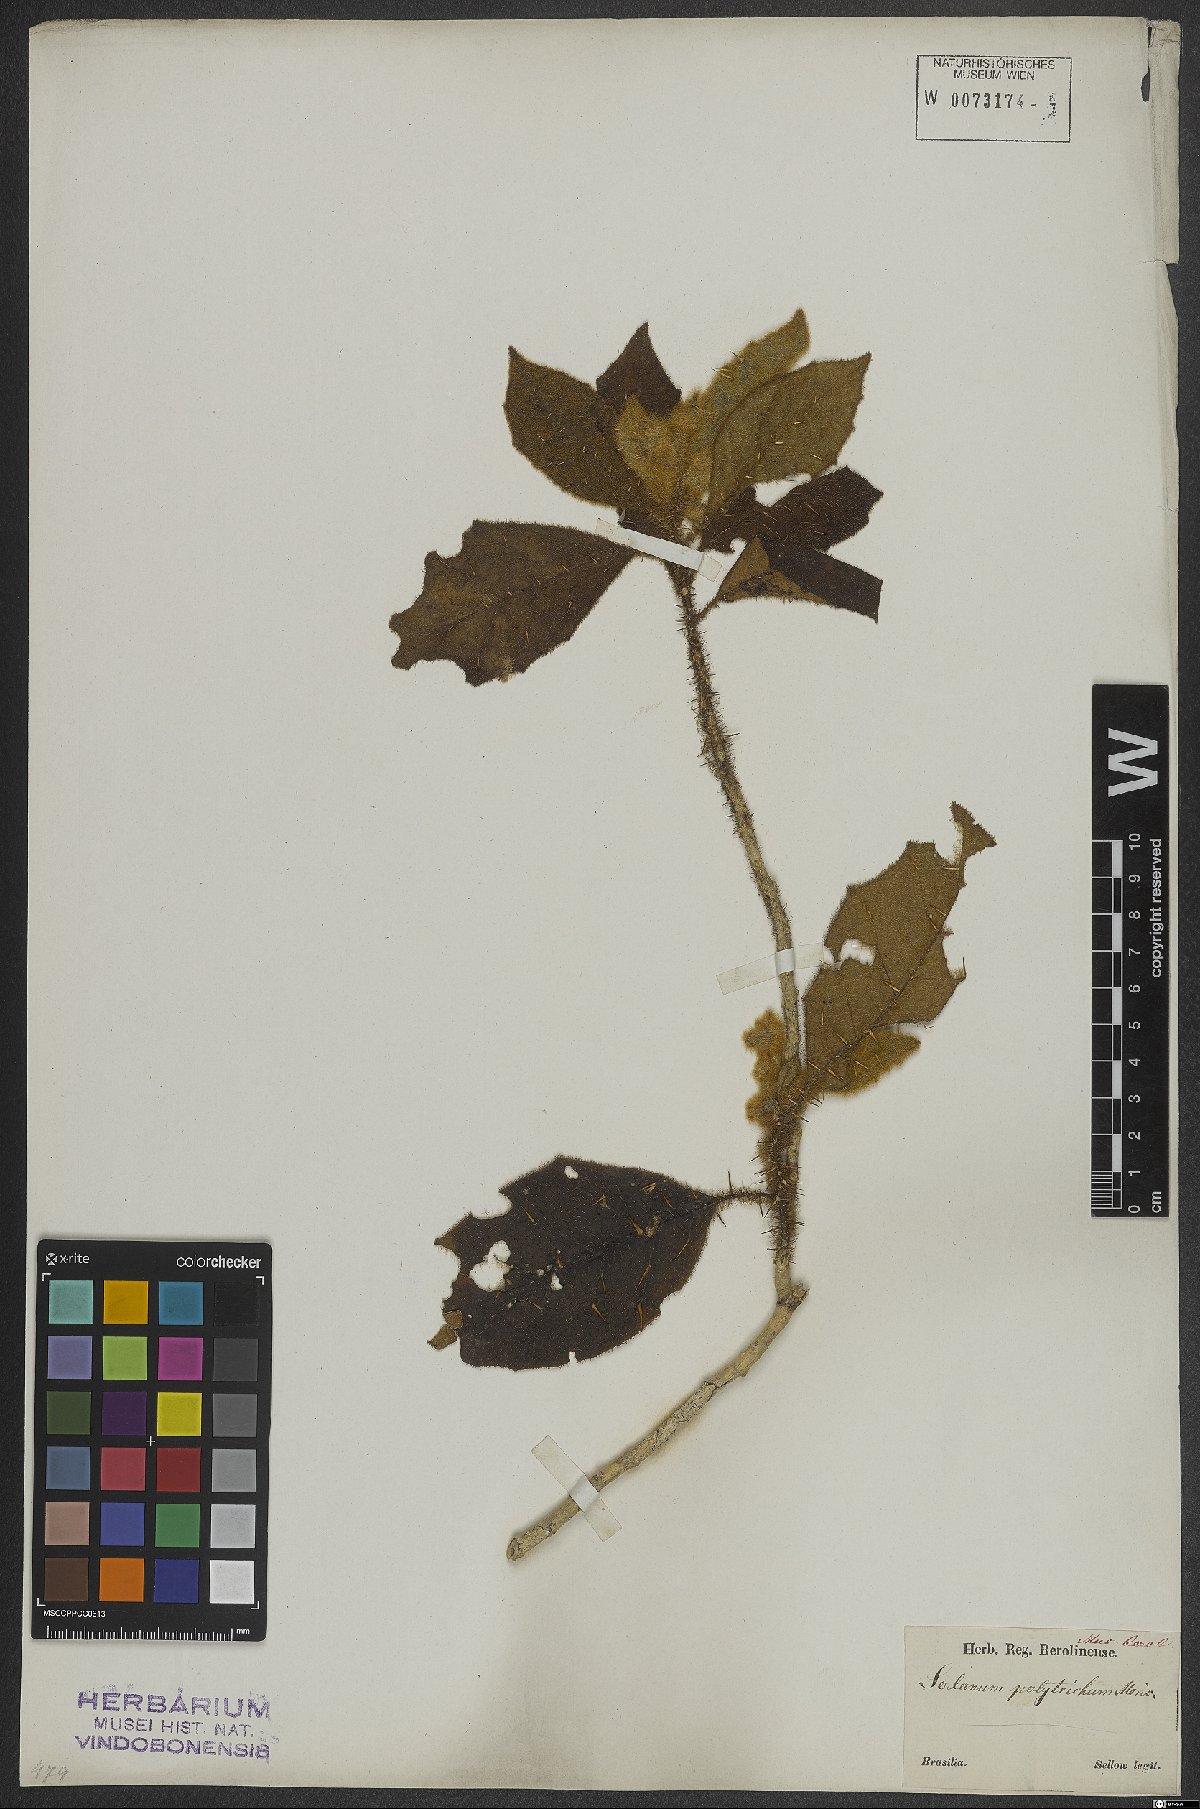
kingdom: Plantae
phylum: Tracheophyta
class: Magnoliopsida
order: Solanales
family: Solanaceae
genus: Solanum
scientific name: Solanum polytrichum
